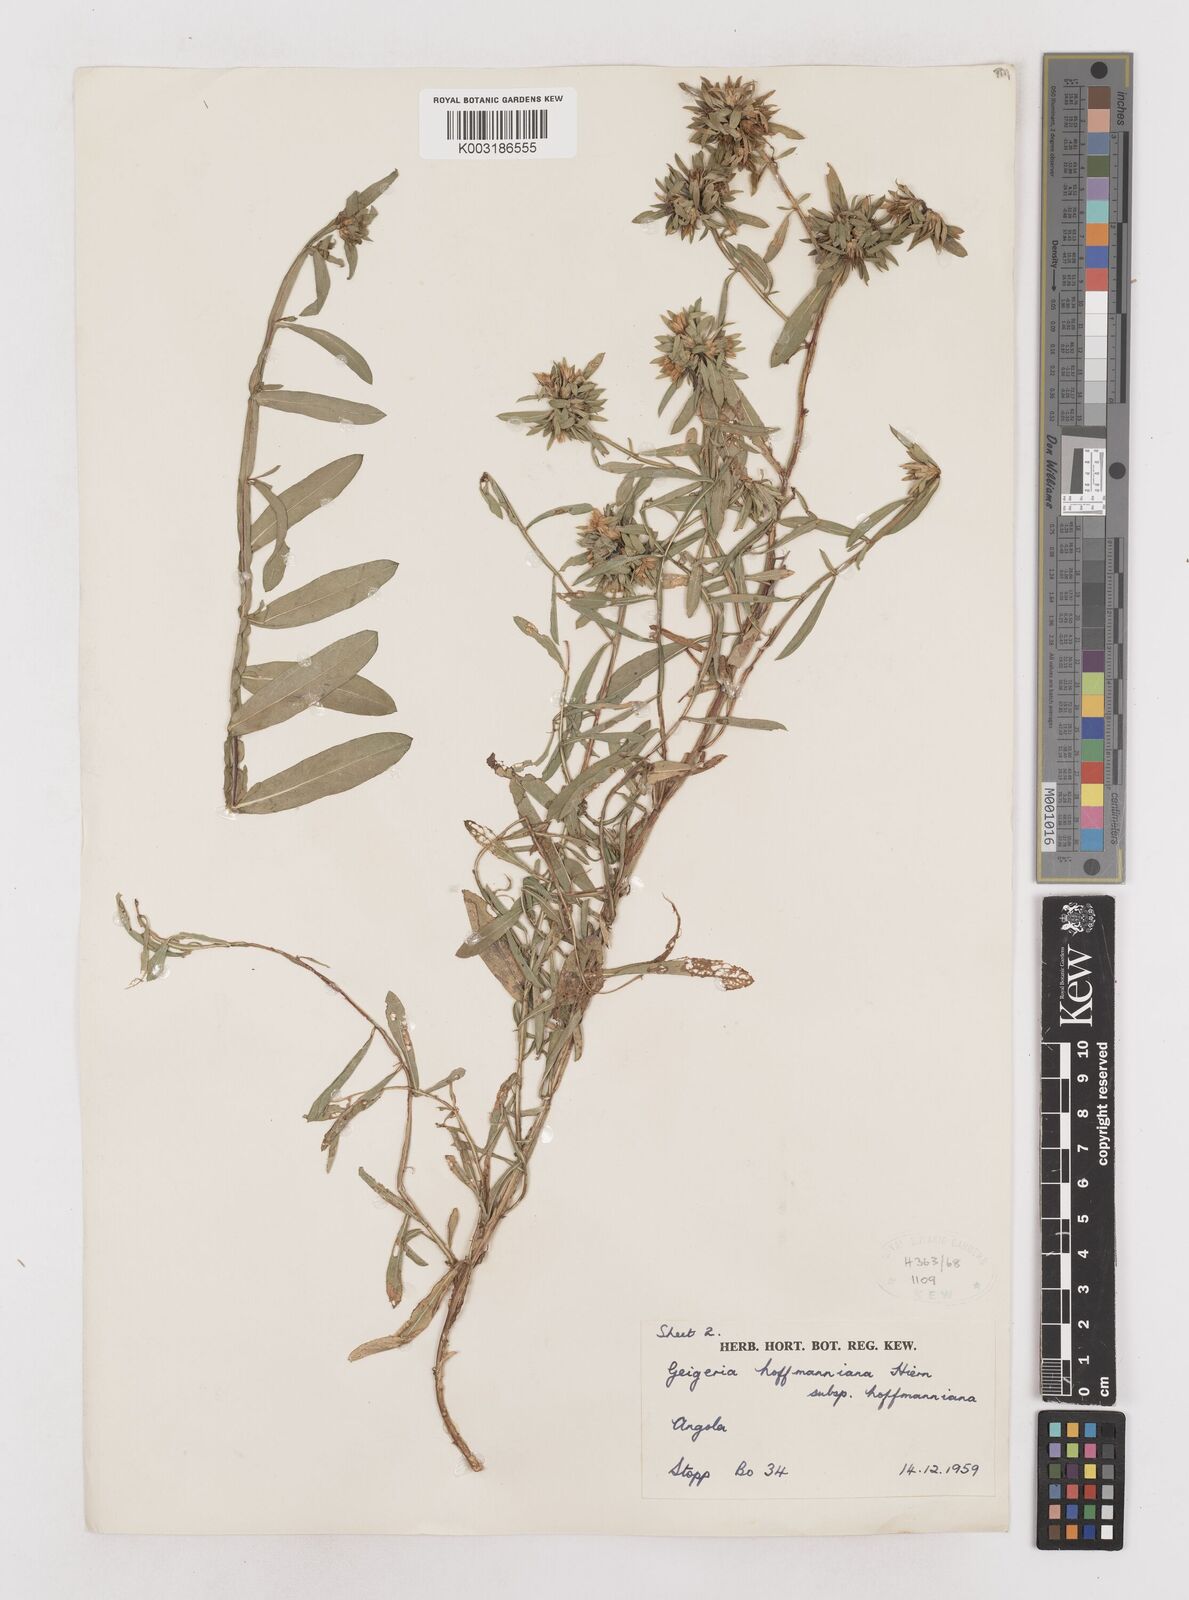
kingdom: Plantae
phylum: Tracheophyta
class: Magnoliopsida
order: Asterales
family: Asteraceae
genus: Geigeria
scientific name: Geigeria hoffmanniana
